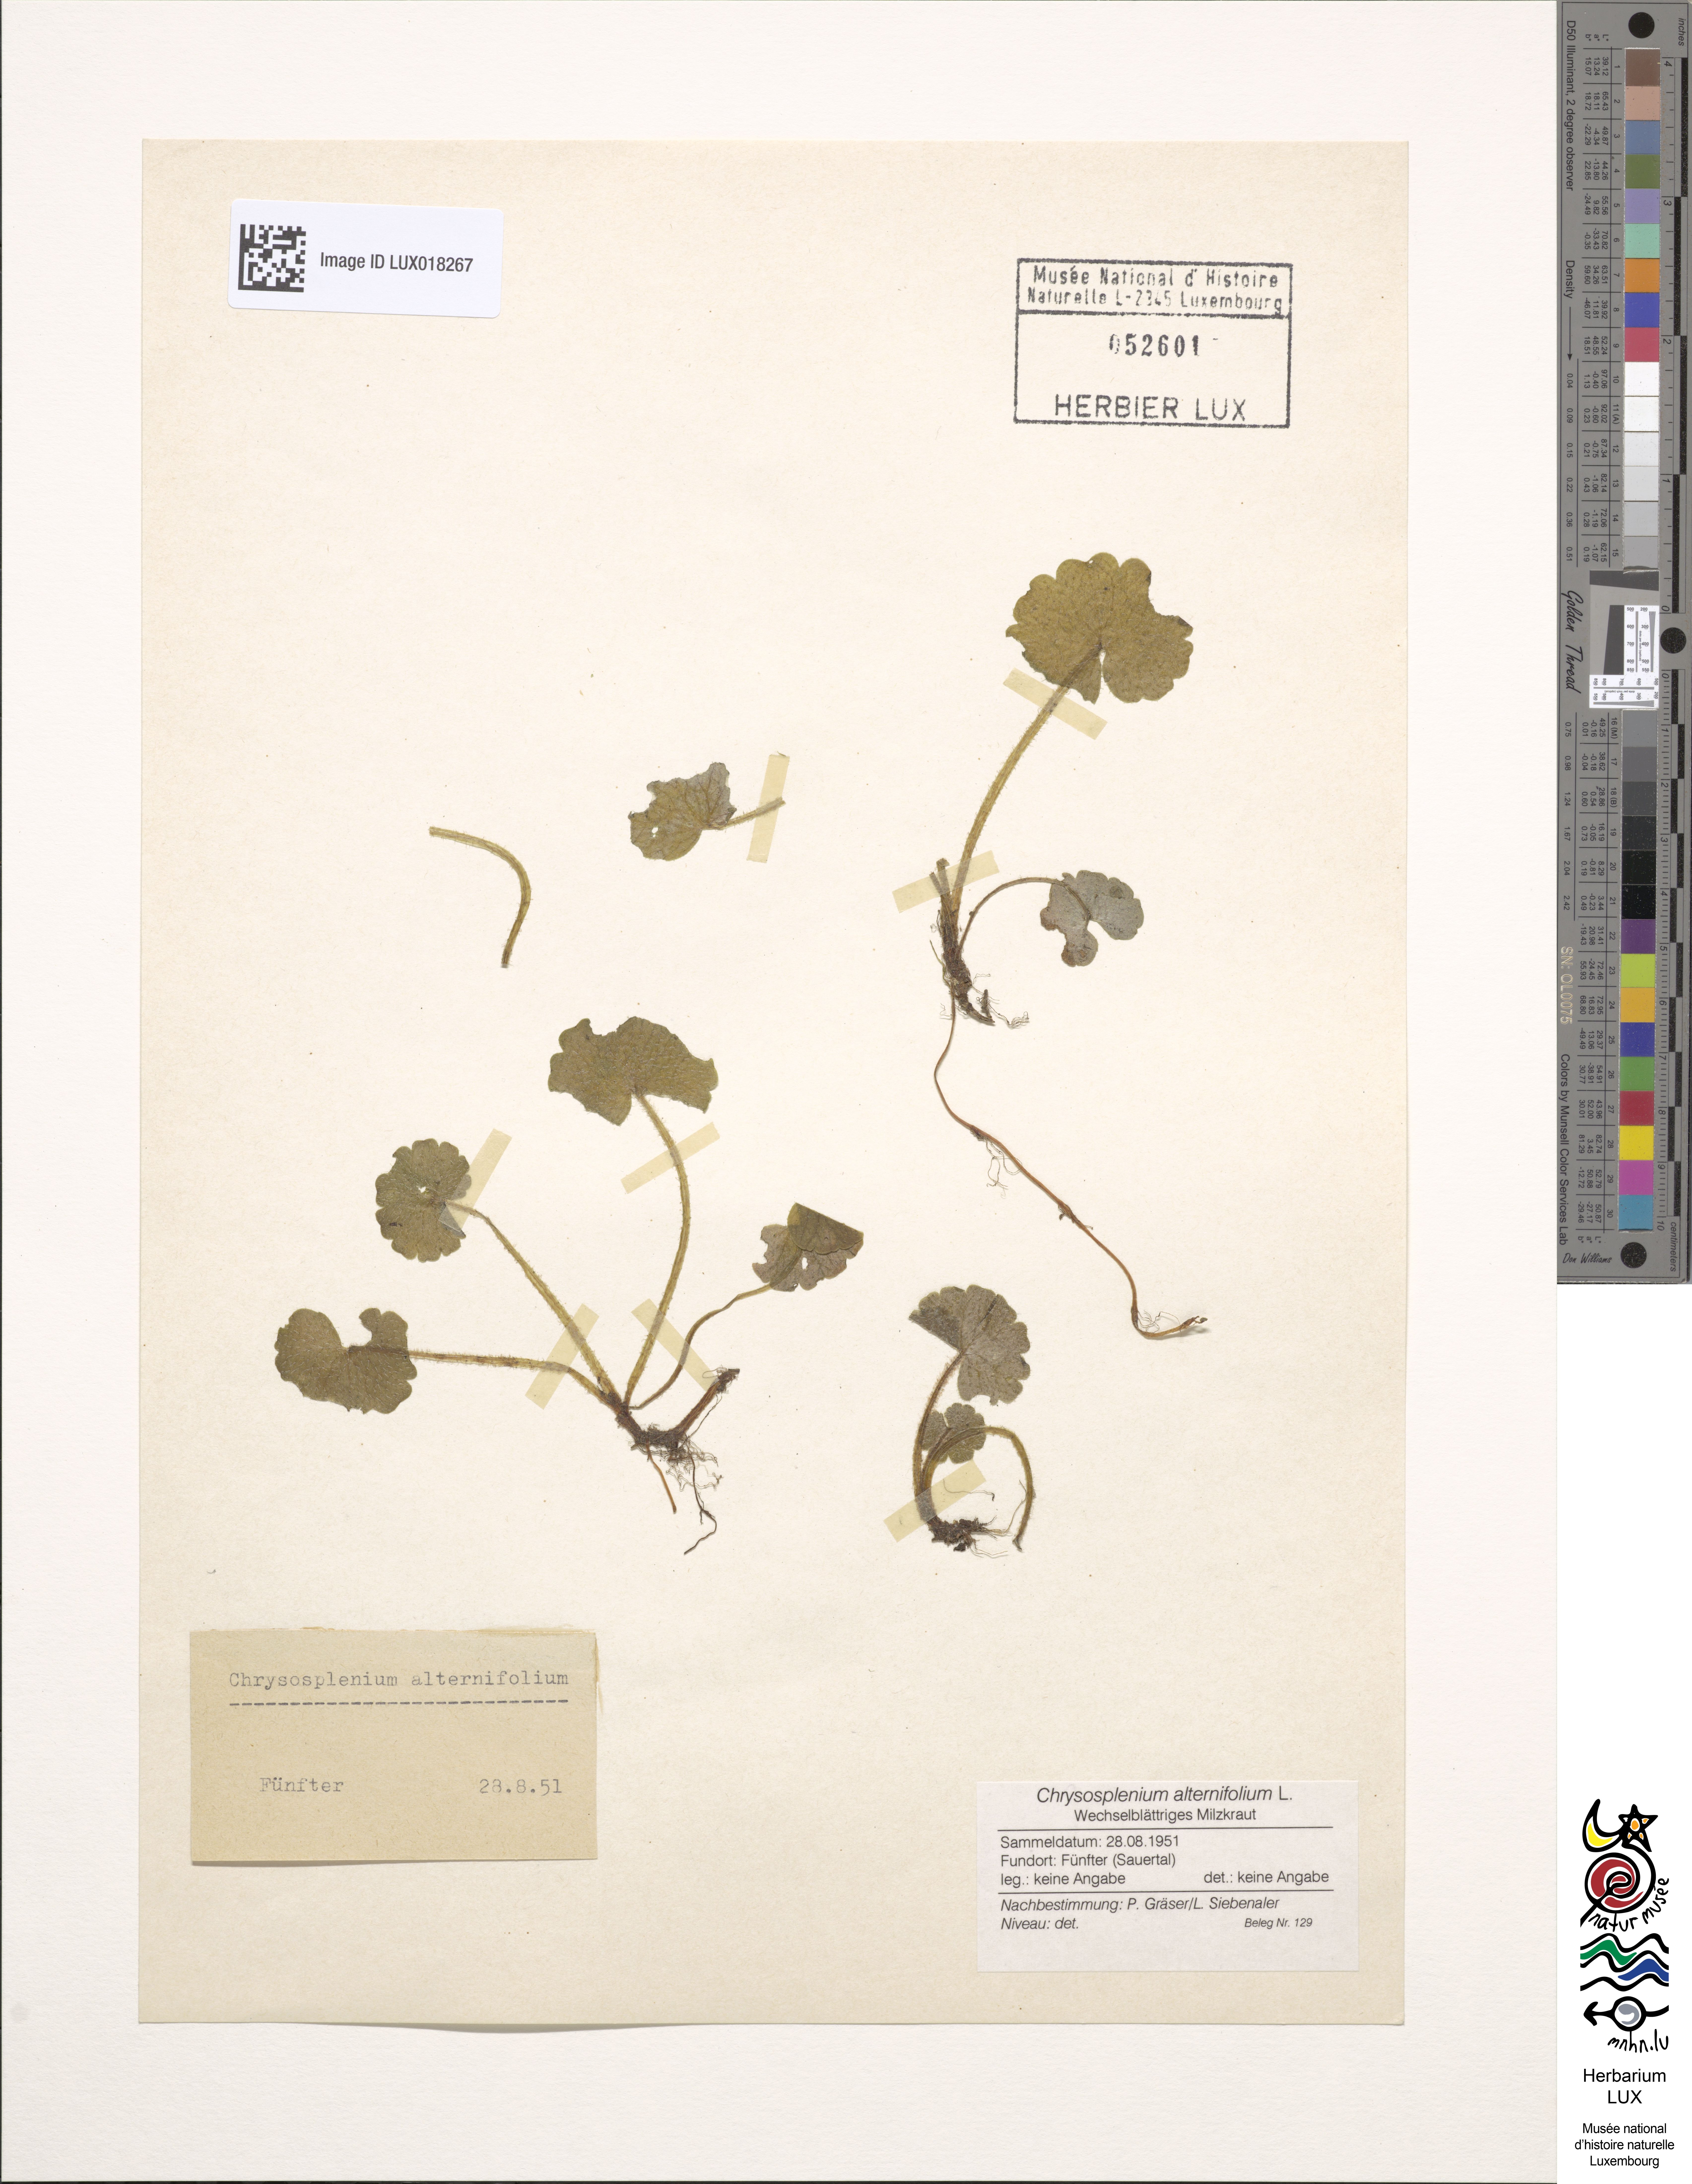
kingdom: Plantae
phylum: Tracheophyta
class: Magnoliopsida
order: Saxifragales
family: Saxifragaceae
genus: Chrysosplenium
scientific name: Chrysosplenium alternifolium
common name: Alternate-leaved golden-saxifrage
